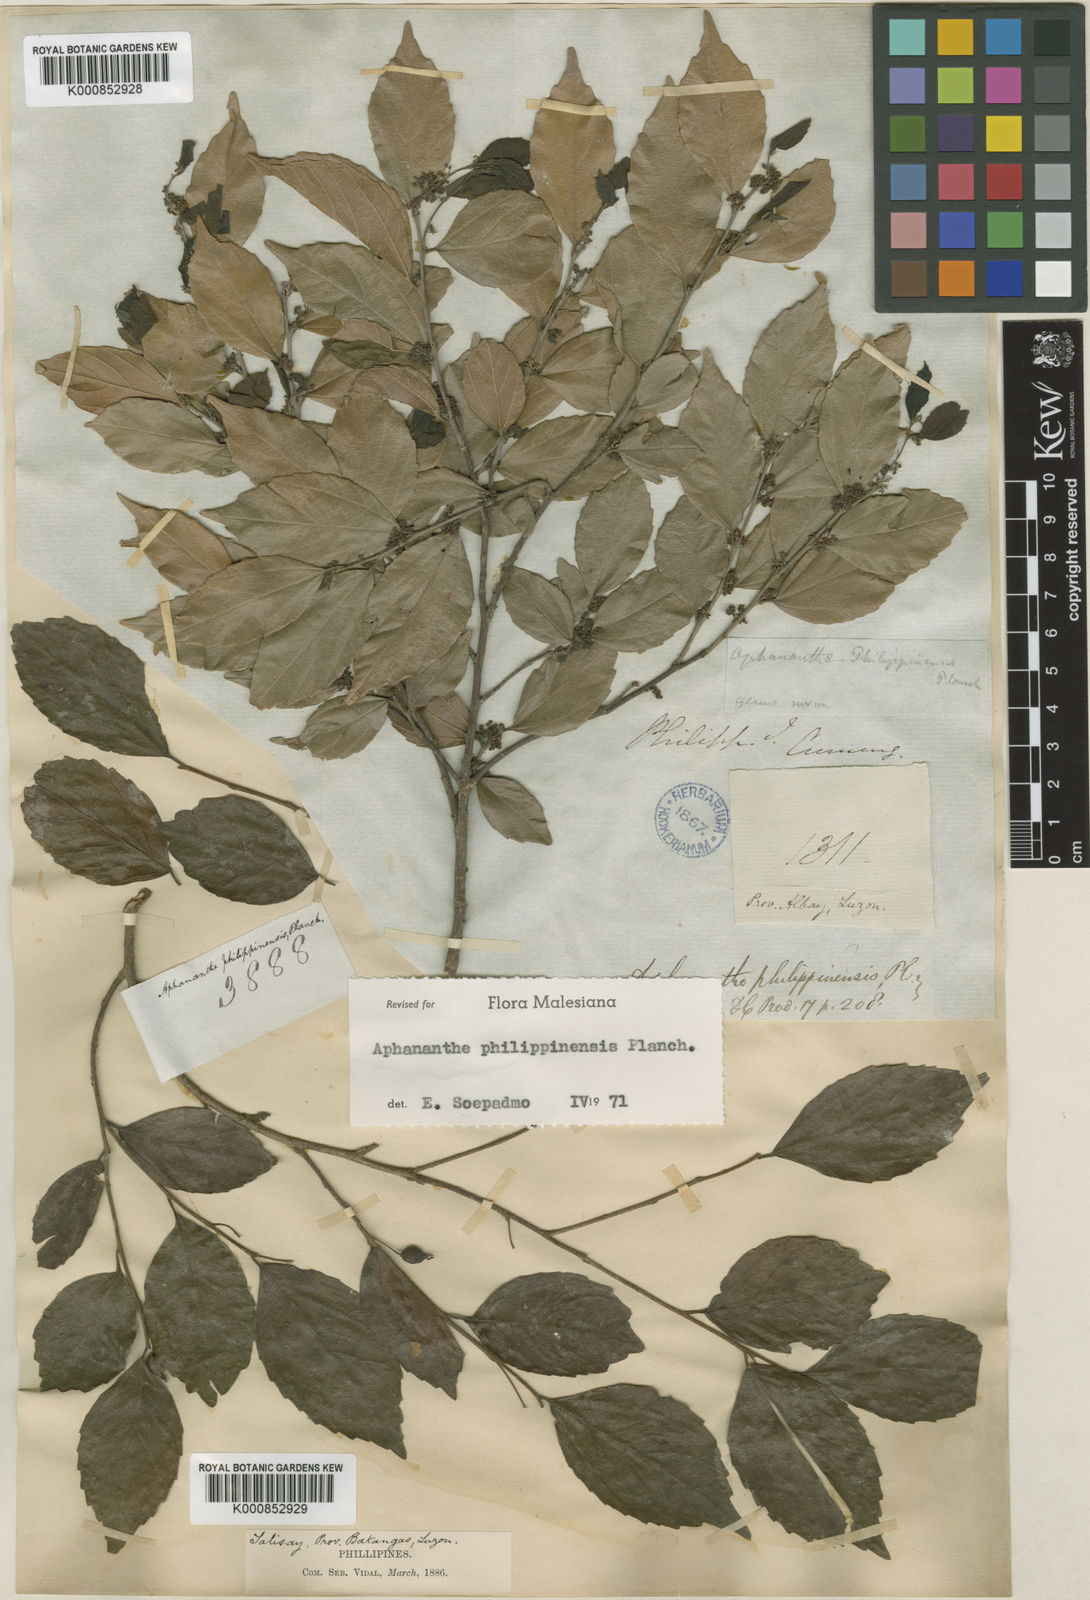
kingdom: Plantae
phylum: Tracheophyta
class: Magnoliopsida
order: Rosales
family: Cannabaceae
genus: Aphananthe
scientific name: Aphananthe philippinensis
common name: Wild holly
